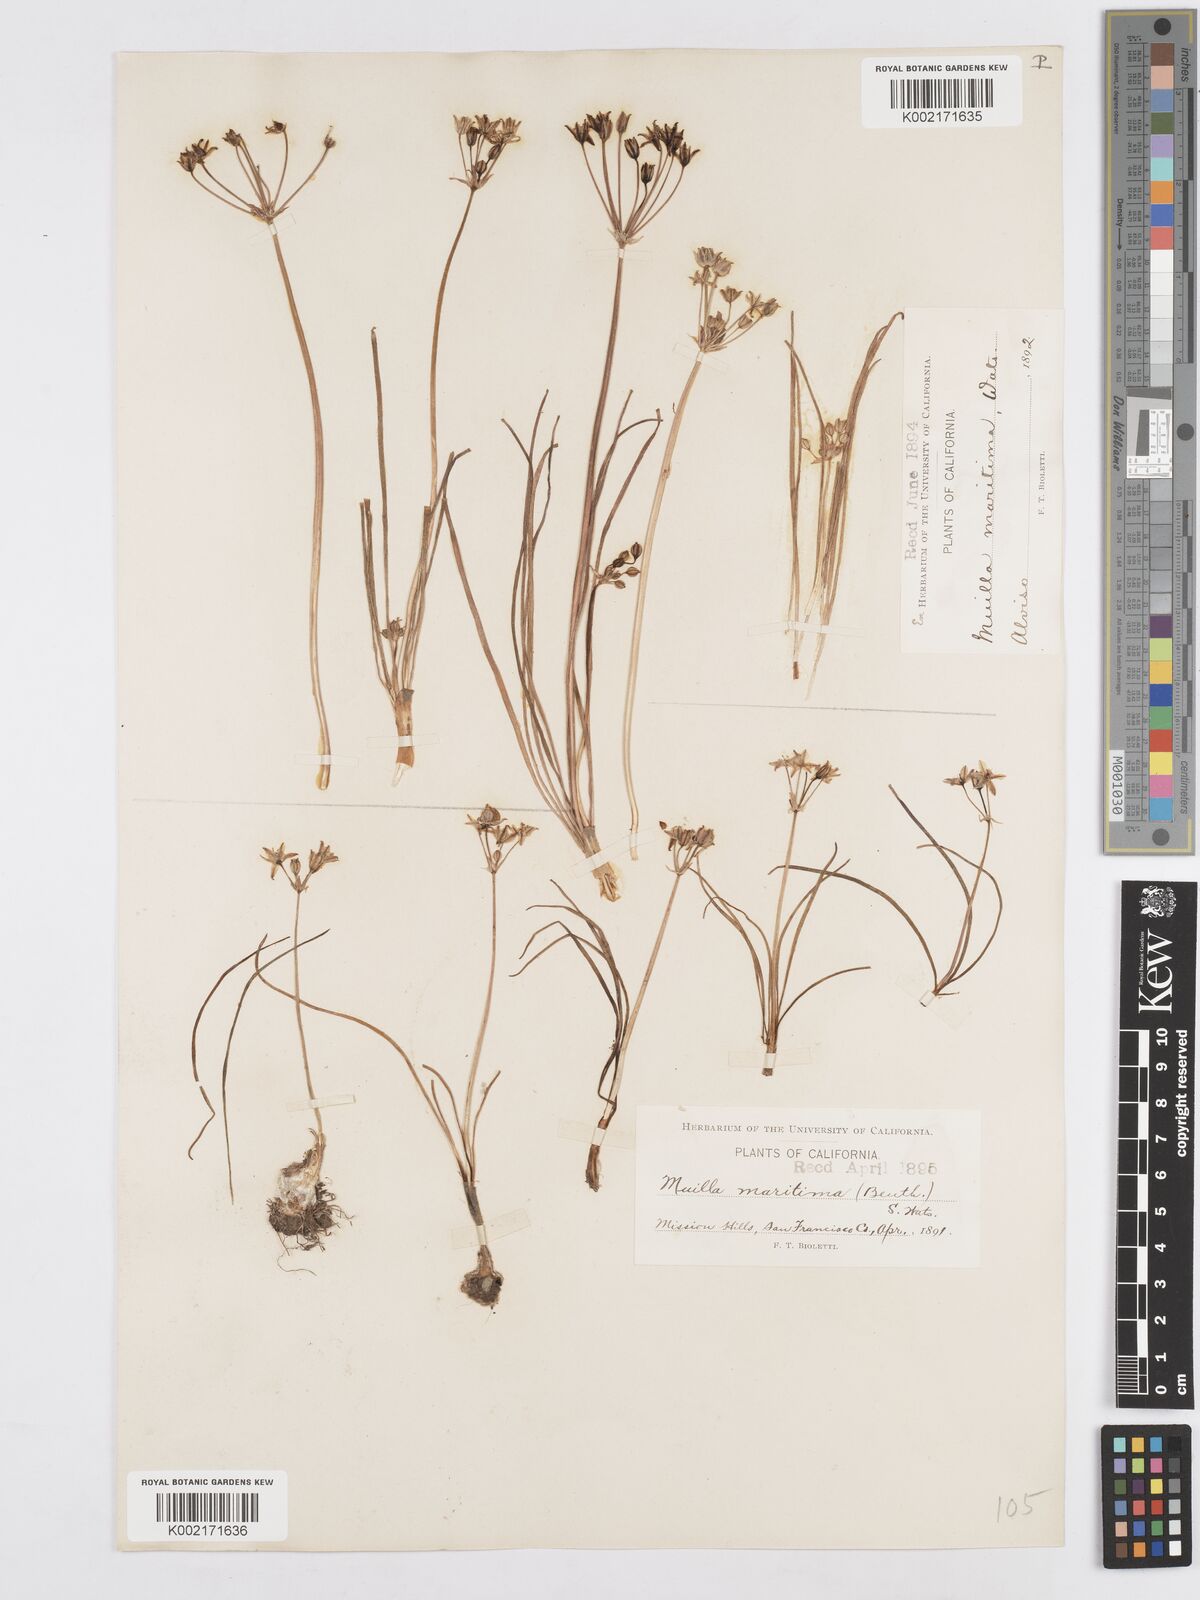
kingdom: Plantae
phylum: Tracheophyta
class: Liliopsida
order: Asparagales
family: Asparagaceae
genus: Muilla
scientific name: Muilla maritima
